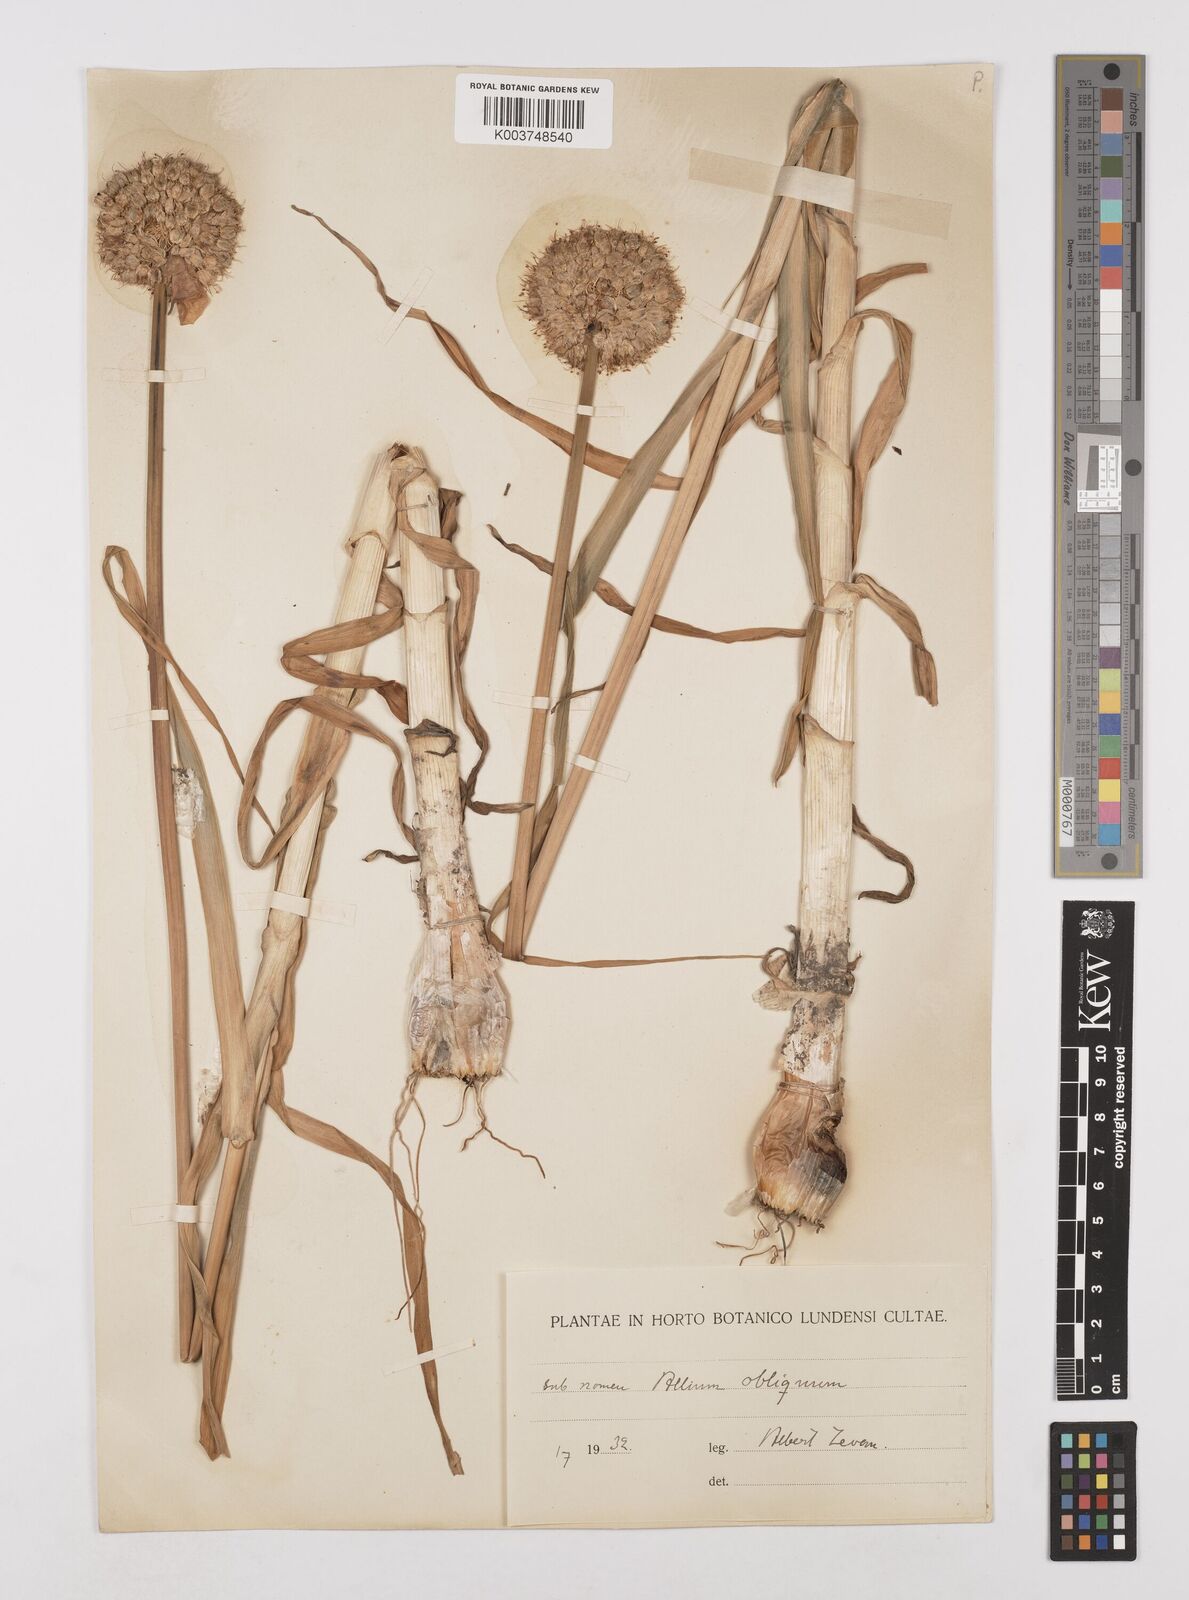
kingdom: Plantae
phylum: Tracheophyta
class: Liliopsida
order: Asparagales
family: Amaryllidaceae
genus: Allium
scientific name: Allium obliquum
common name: Oblique onion
